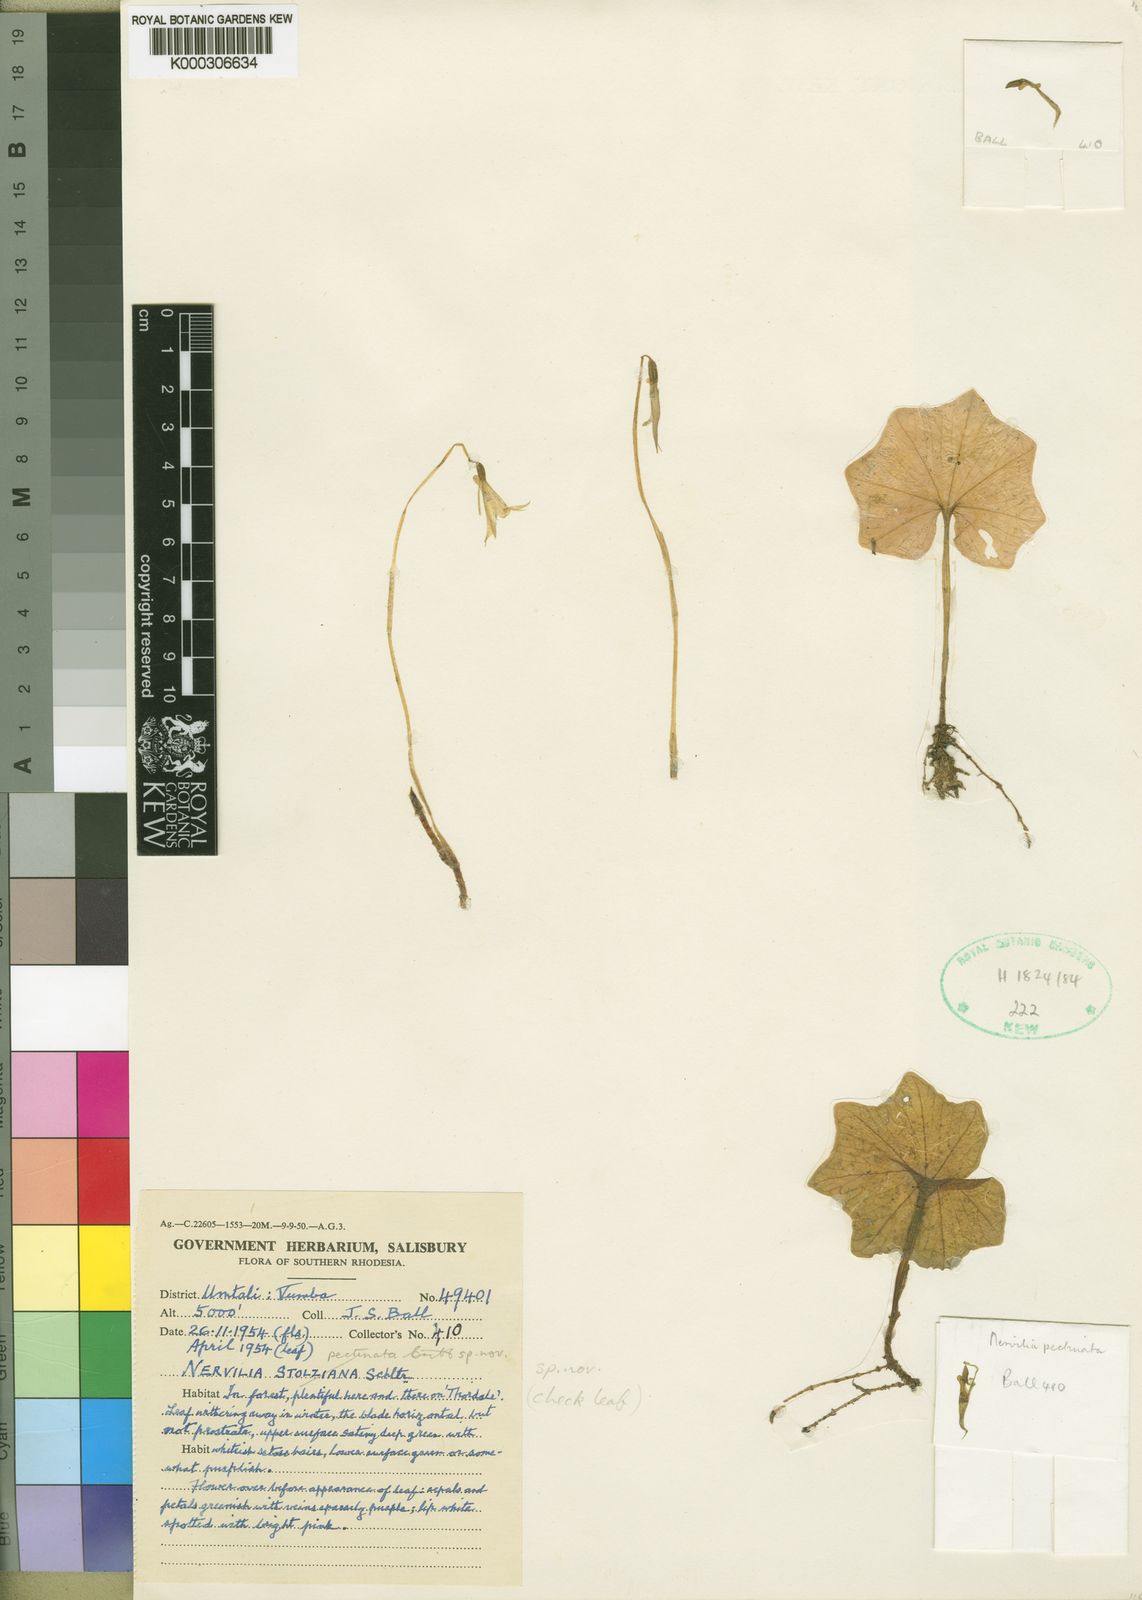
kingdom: Plantae
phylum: Tracheophyta
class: Liliopsida
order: Asparagales
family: Orchidaceae
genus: Nervilia
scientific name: Nervilia pectinata
